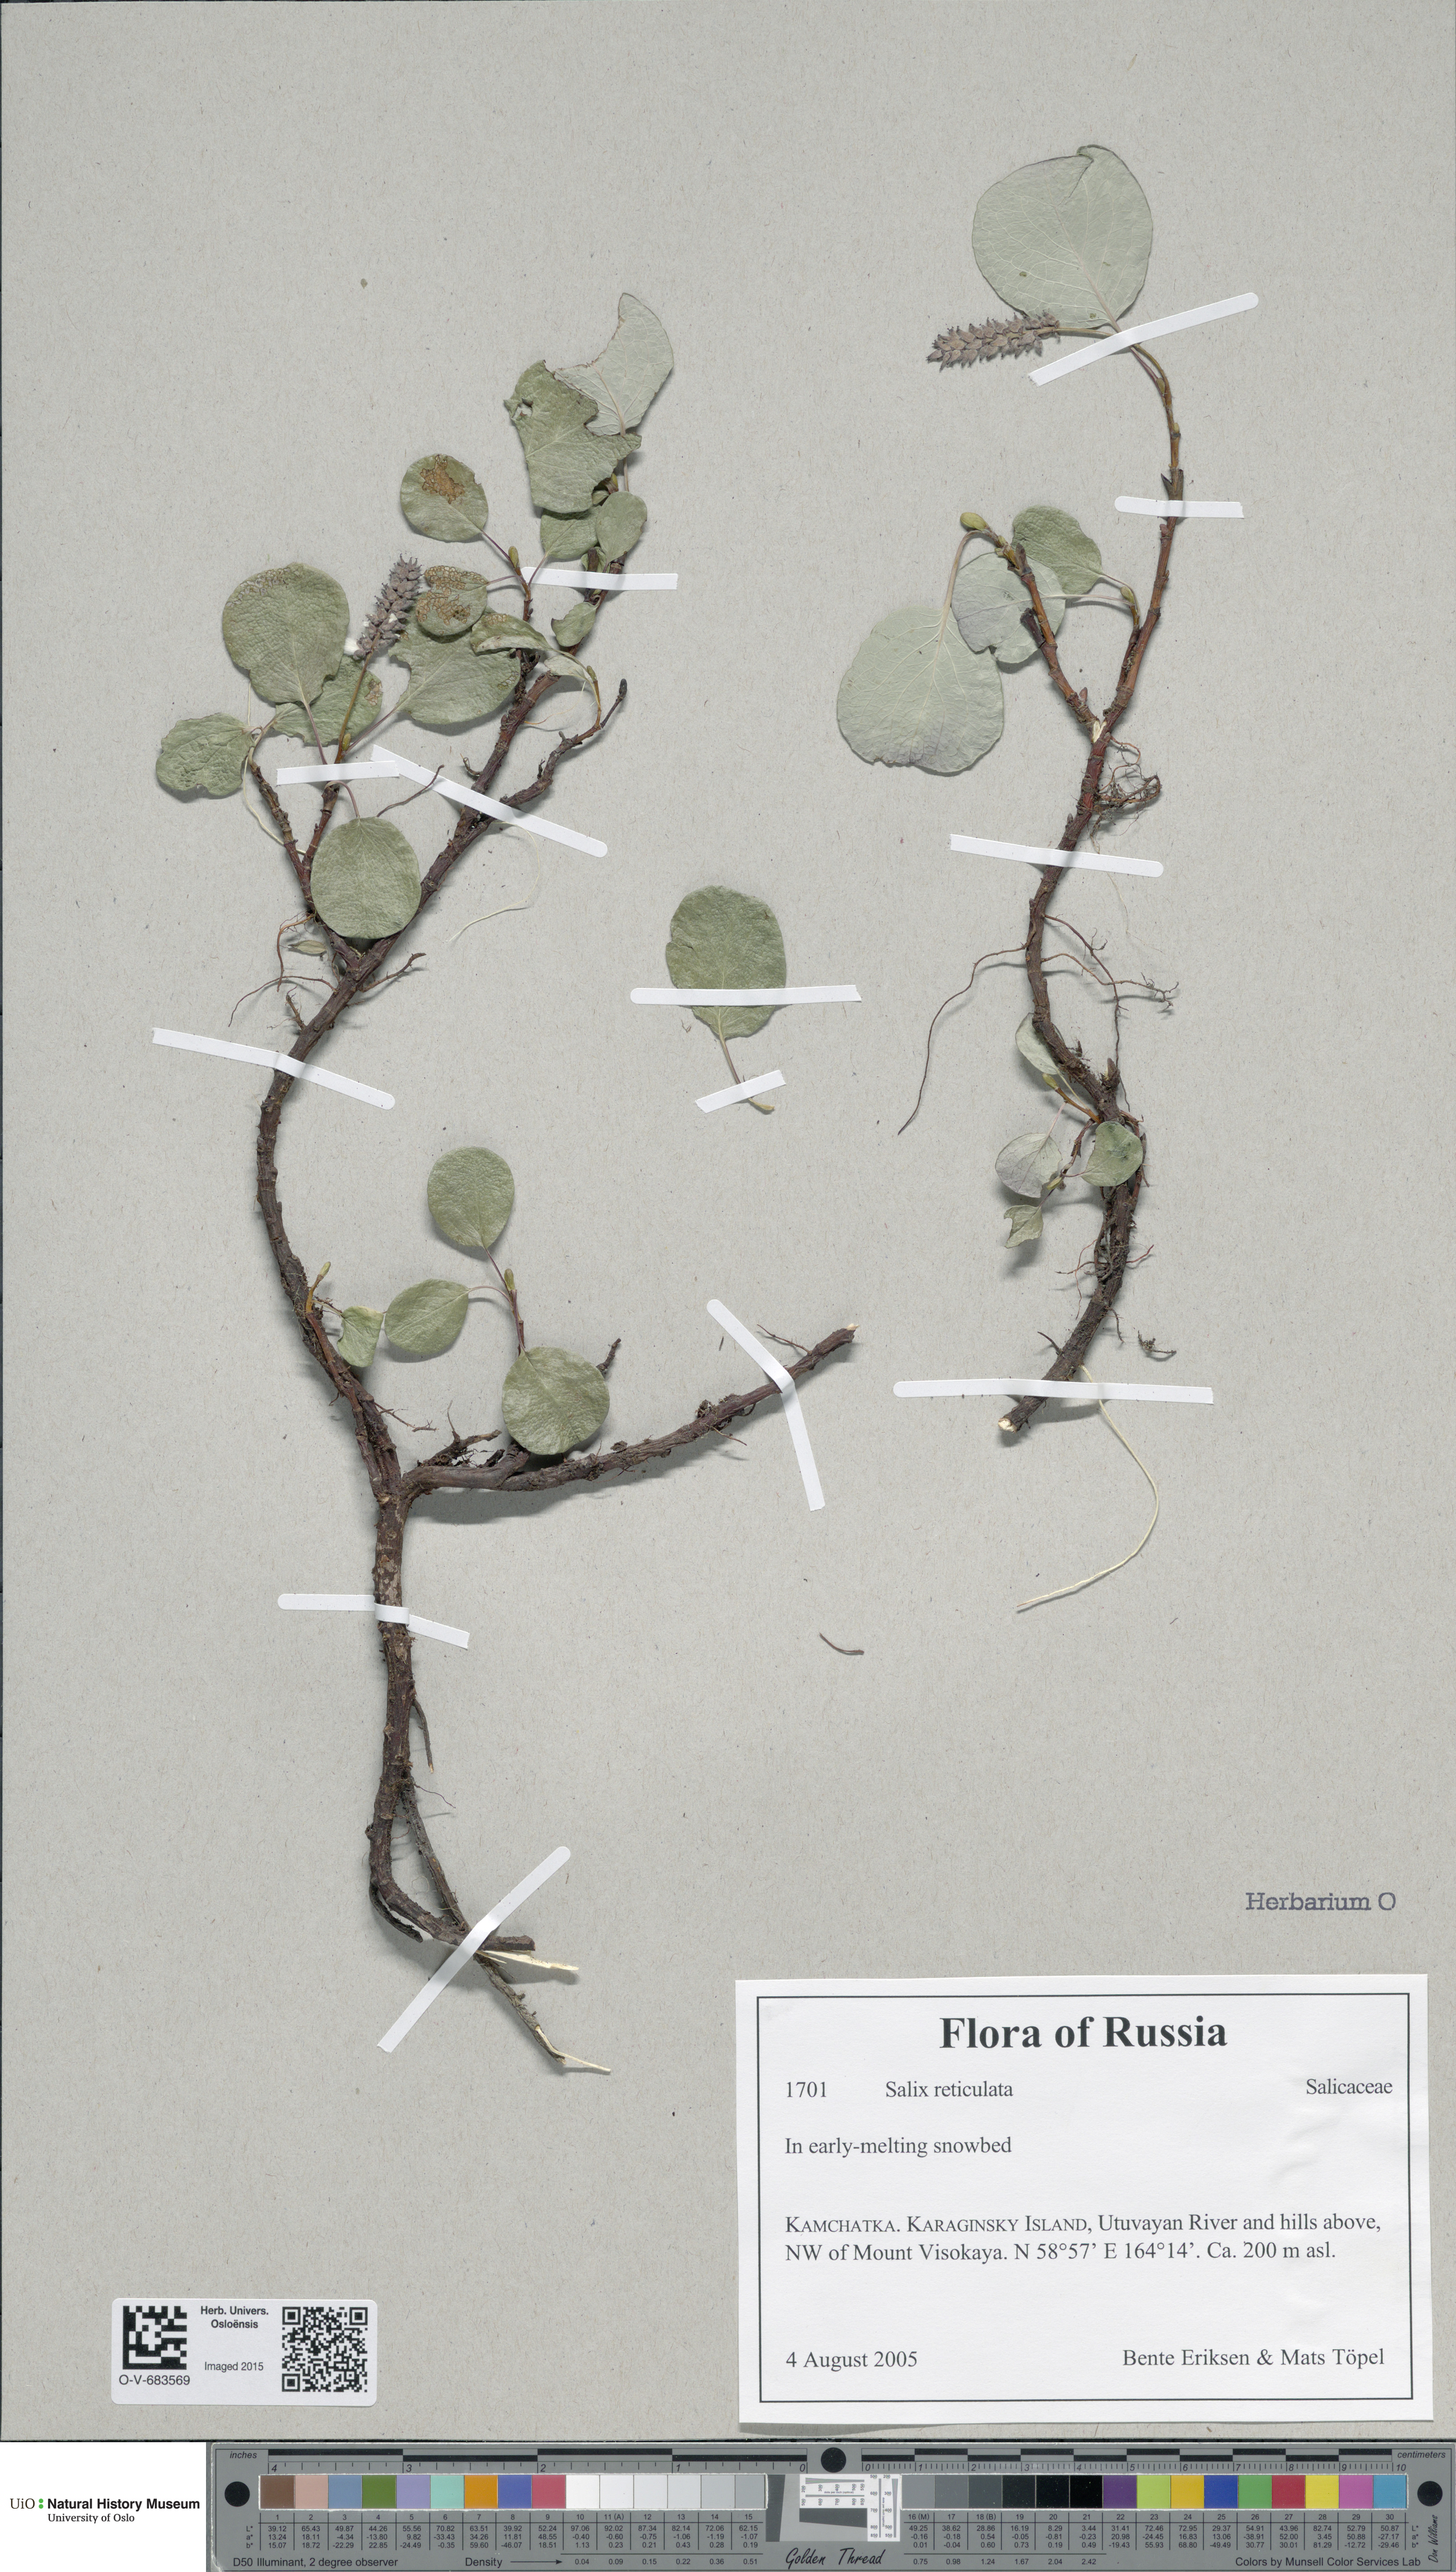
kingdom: Plantae
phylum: Tracheophyta
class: Magnoliopsida
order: Malpighiales
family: Salicaceae
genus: Salix
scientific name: Salix reticulata
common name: Net-leaved willow
